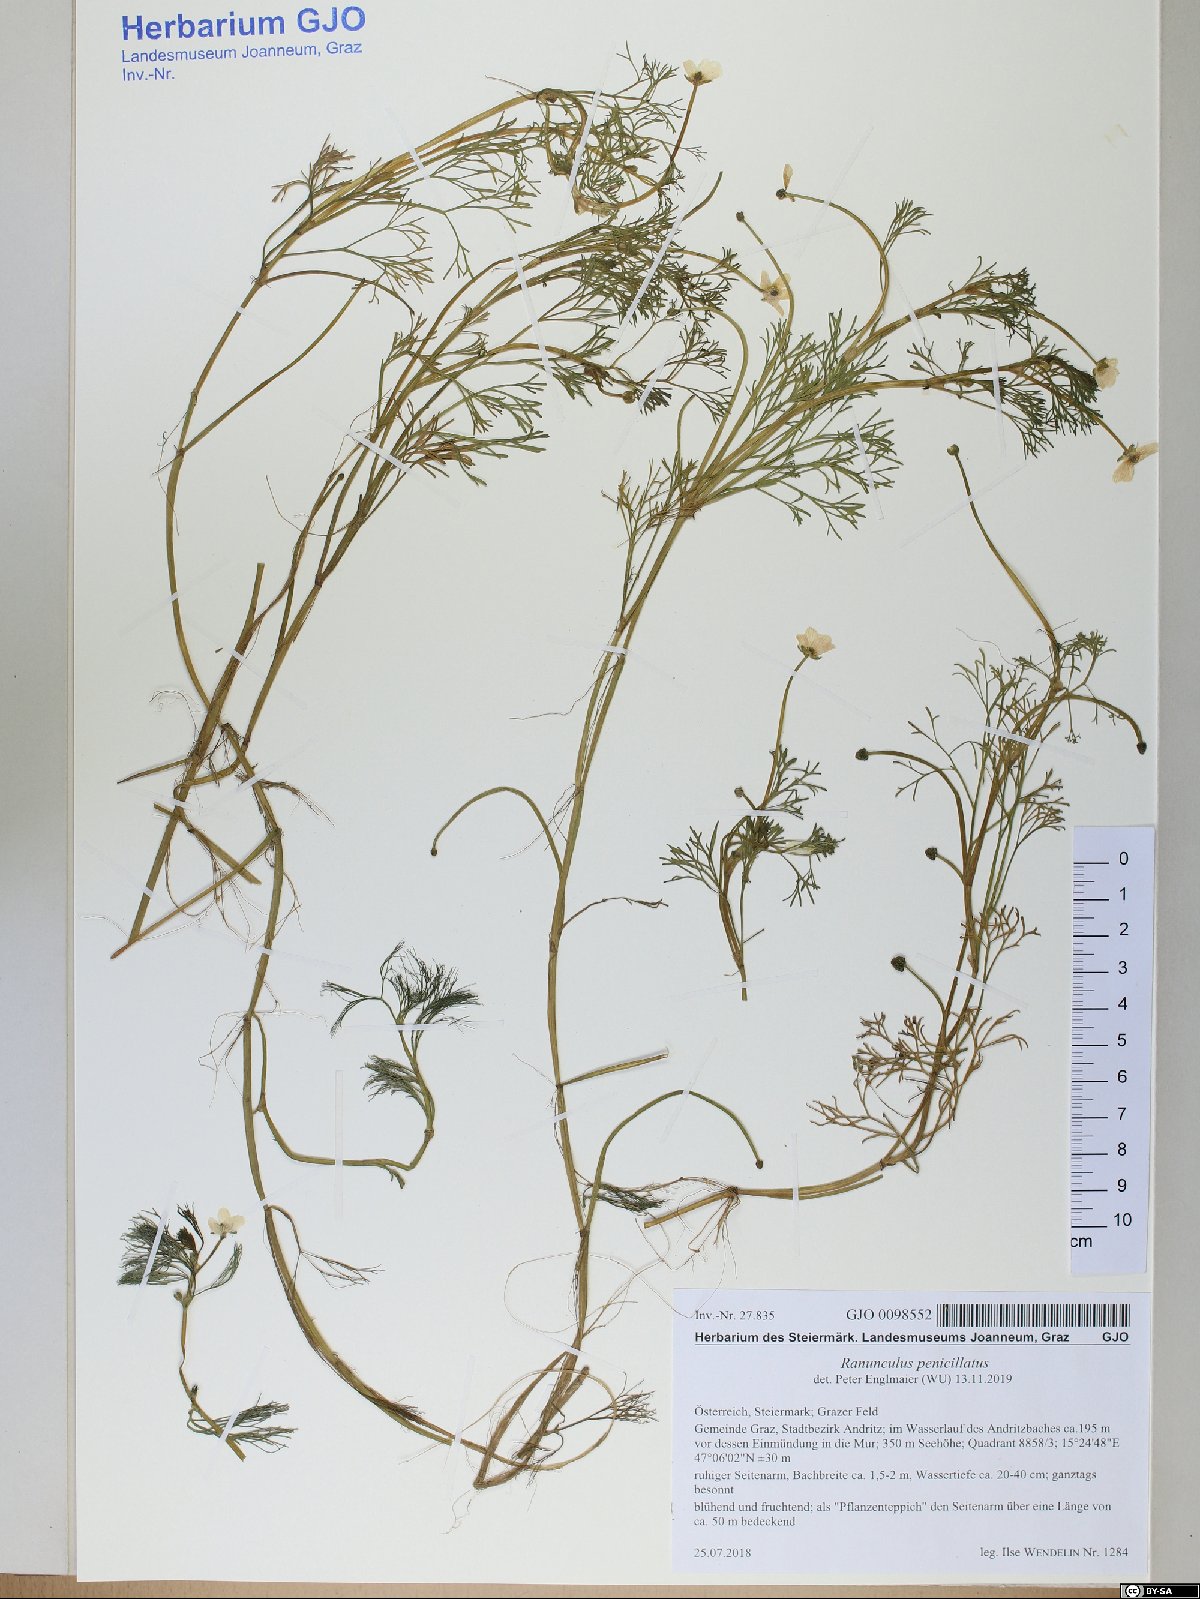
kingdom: Plantae
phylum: Tracheophyta
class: Magnoliopsida
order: Ranunculales
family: Ranunculaceae
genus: Ranunculus
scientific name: Ranunculus penicillatus
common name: Stream water-crowfoot
